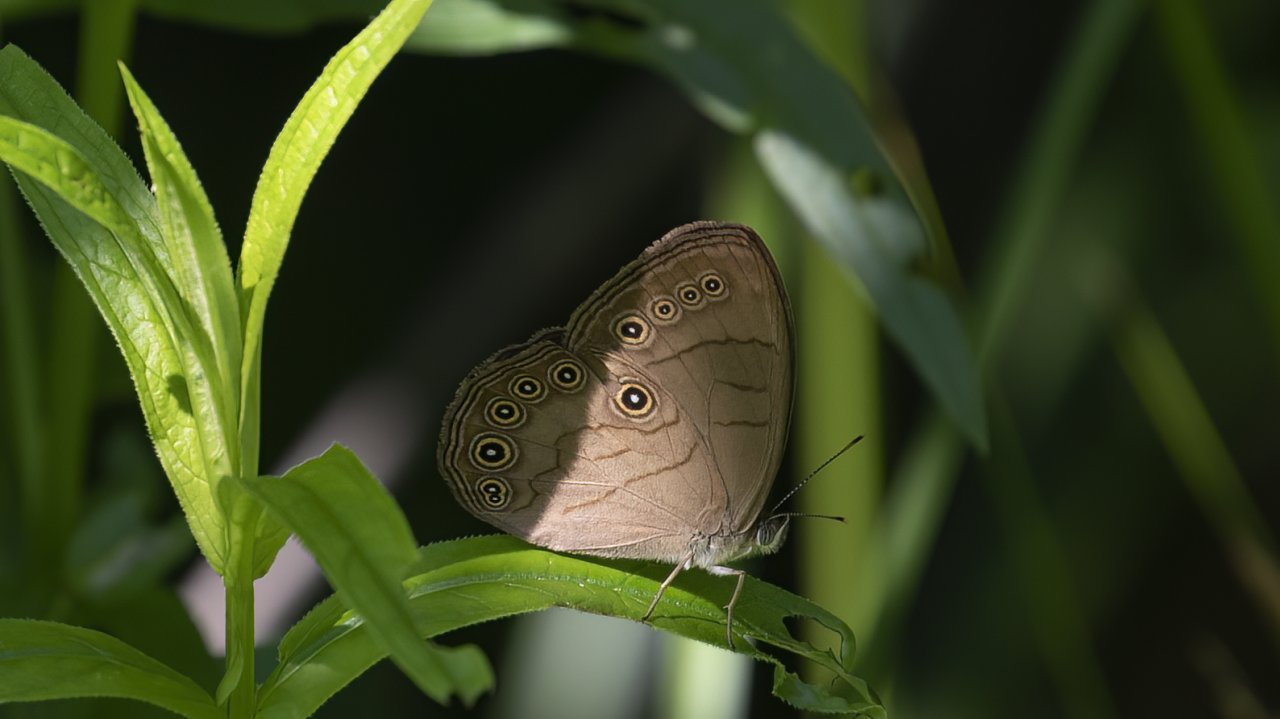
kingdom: Animalia
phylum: Arthropoda
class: Insecta
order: Lepidoptera
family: Nymphalidae
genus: Lethe
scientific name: Lethe eurydice
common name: Appalachian Eyed Brown
